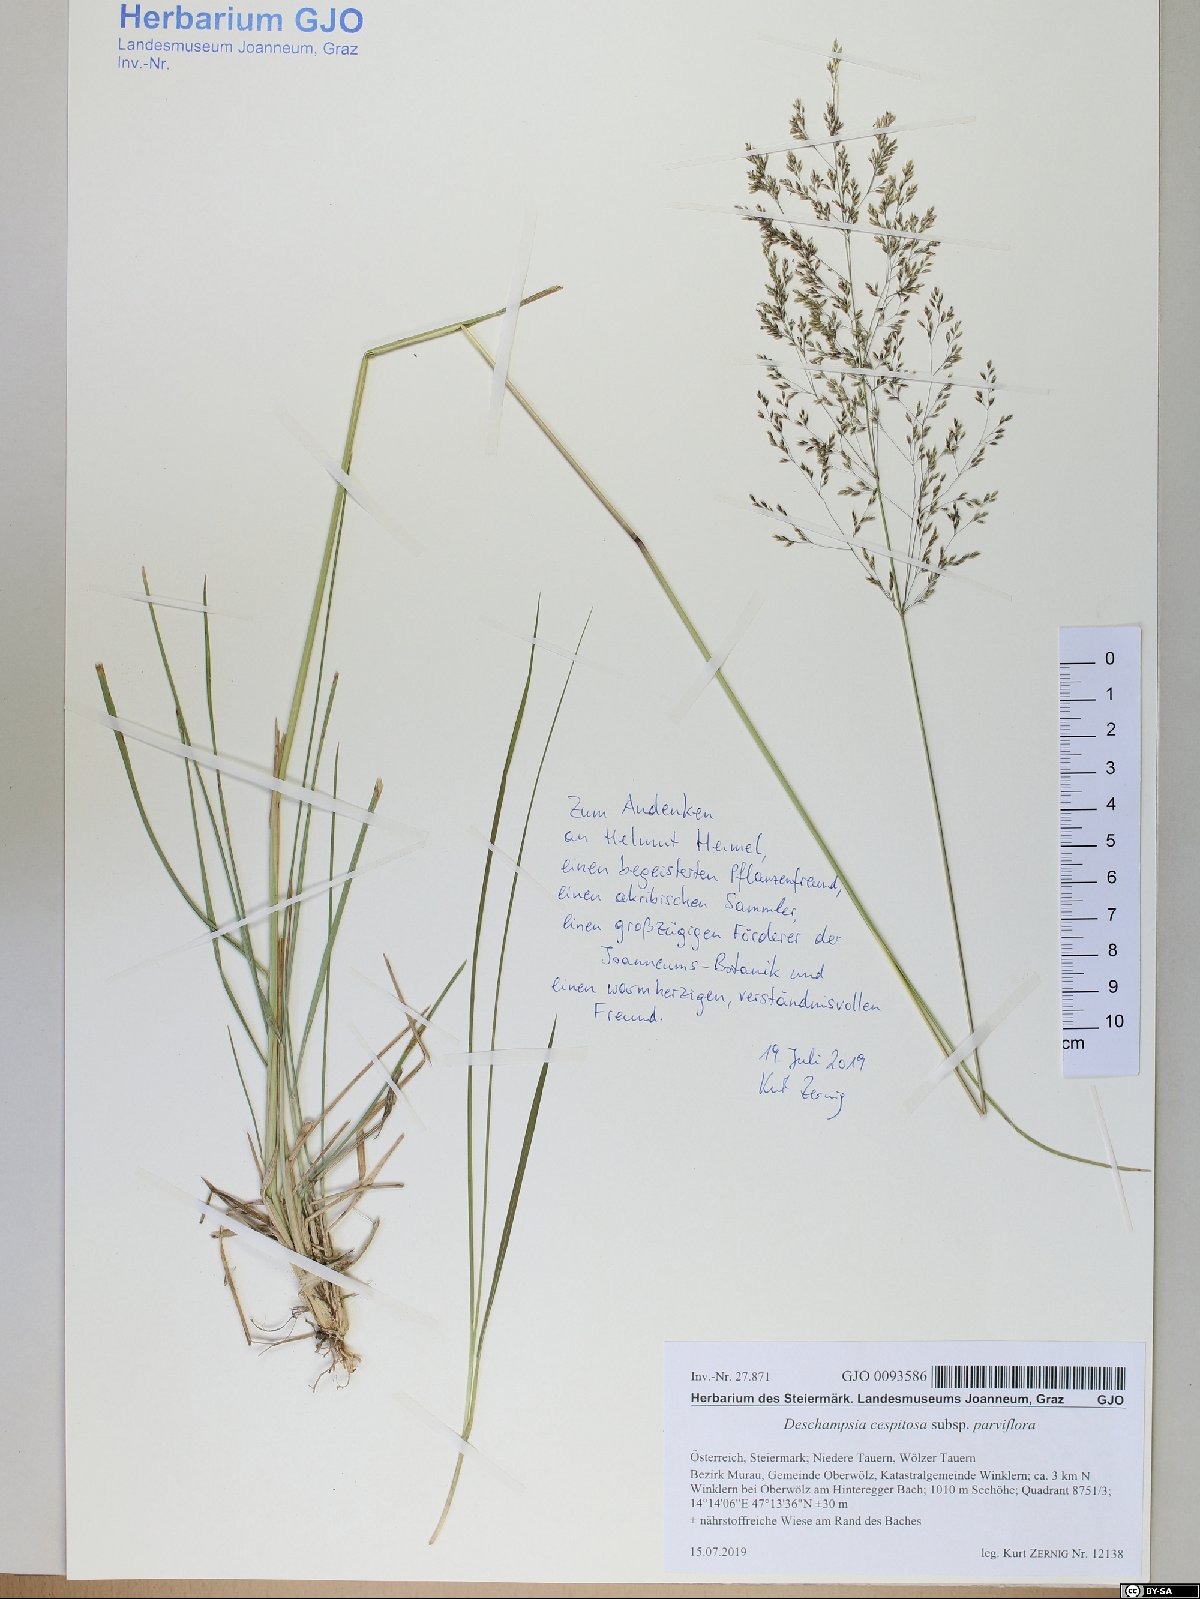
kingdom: Plantae
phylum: Tracheophyta
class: Liliopsida
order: Poales
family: Poaceae
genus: Deschampsia
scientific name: Deschampsia cespitosa
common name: Tufted hair-grass
